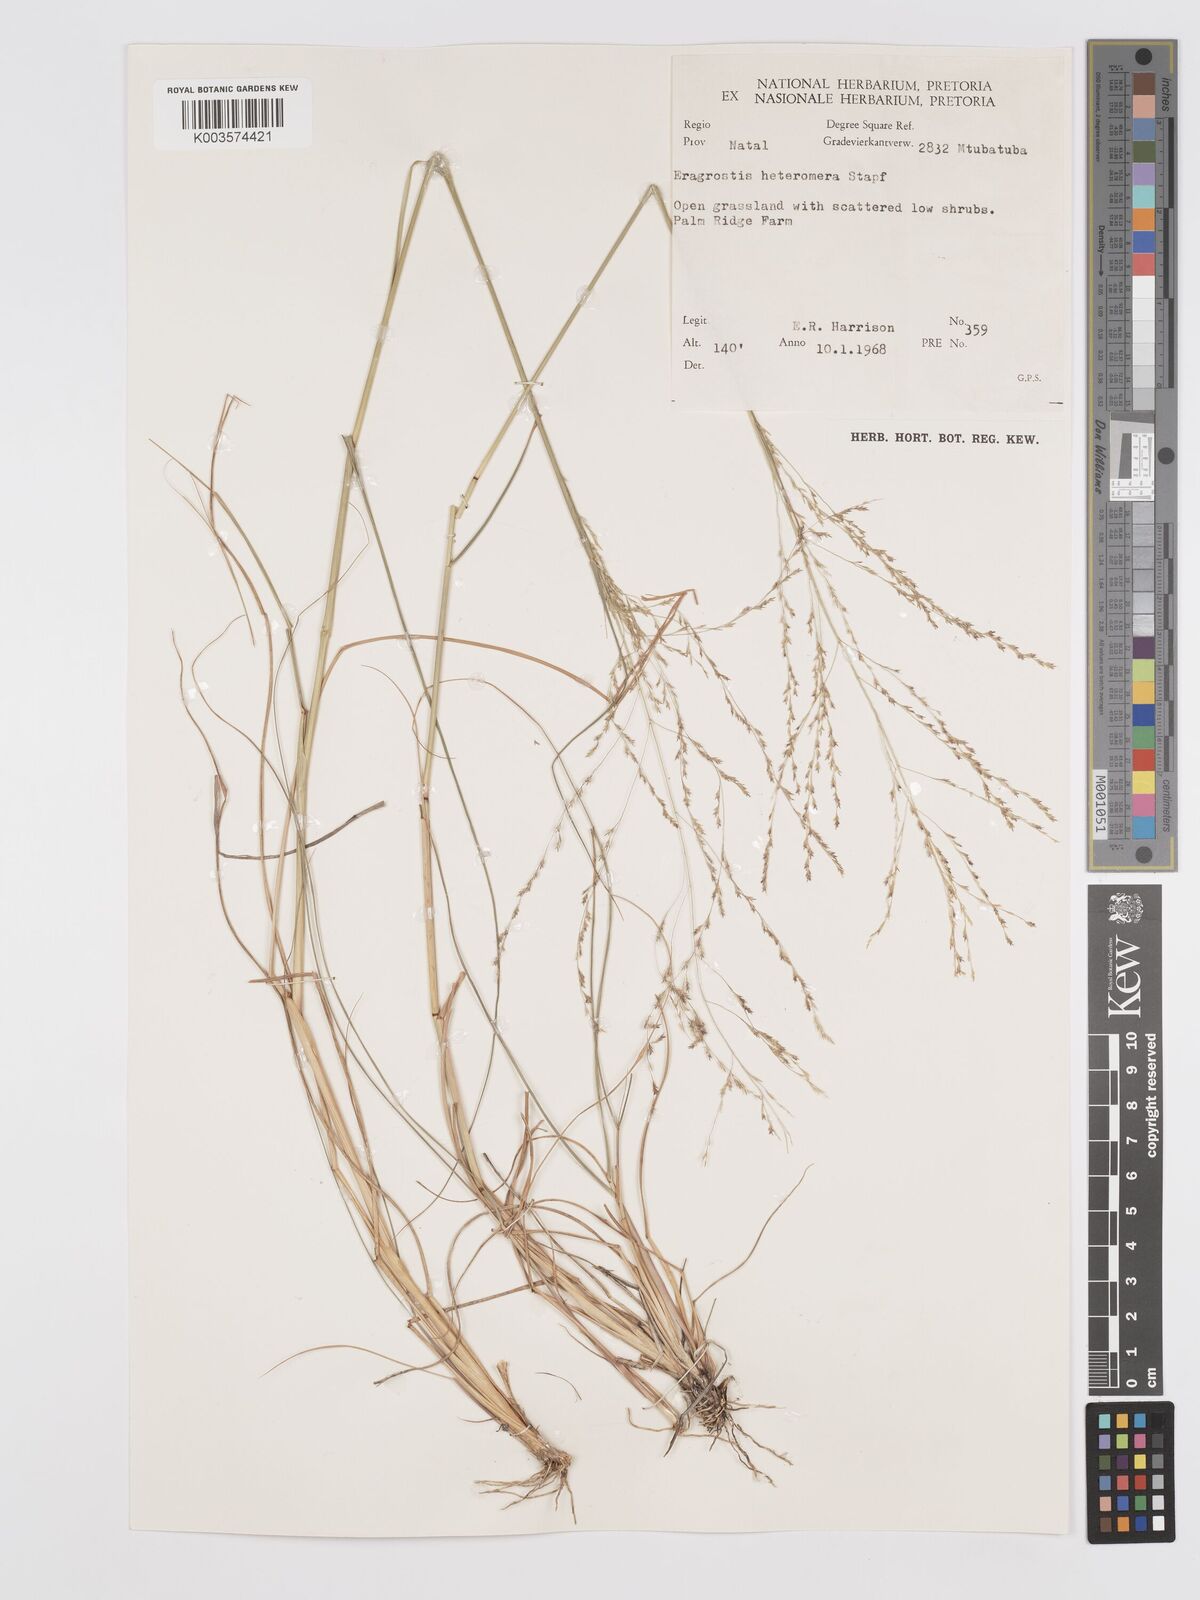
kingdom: Plantae
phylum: Tracheophyta
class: Liliopsida
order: Poales
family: Poaceae
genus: Eragrostis
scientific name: Eragrostis heteromera
